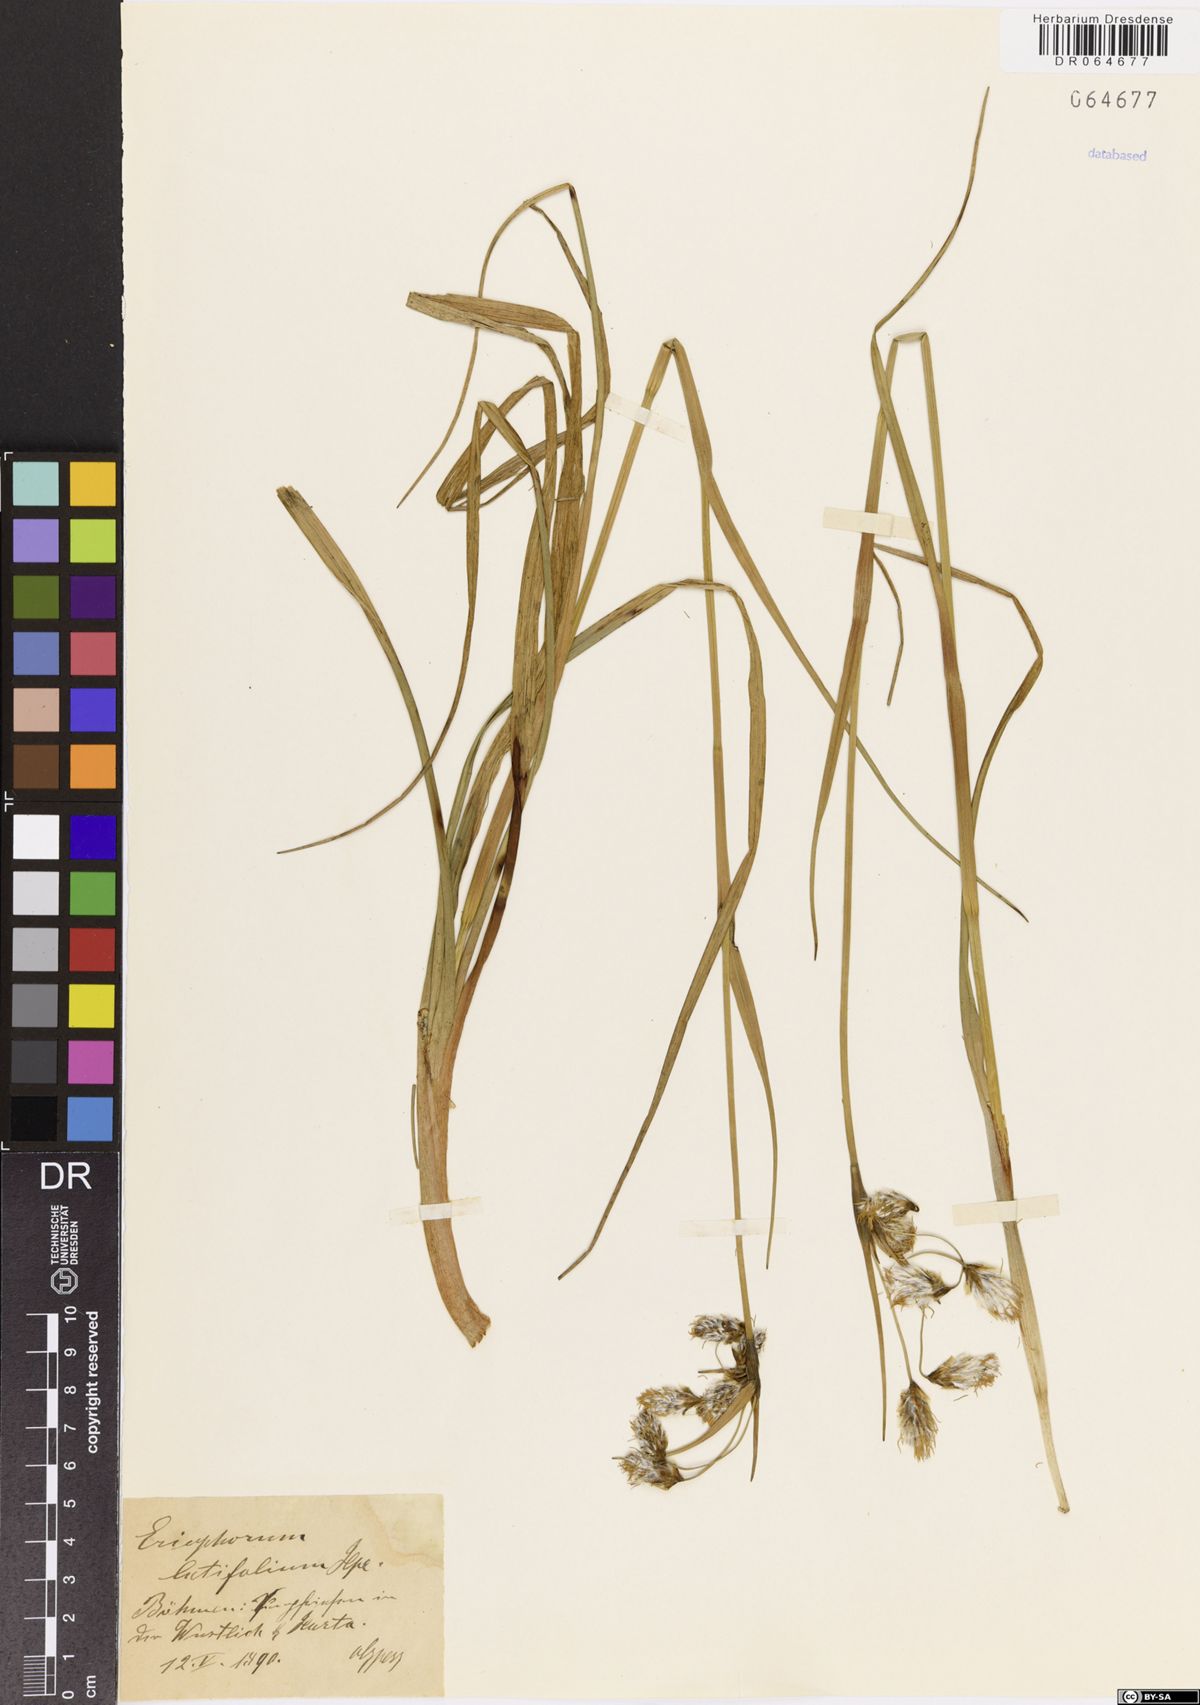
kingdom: Plantae
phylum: Tracheophyta
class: Liliopsida
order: Poales
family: Cyperaceae
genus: Eriophorum
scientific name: Eriophorum latifolium
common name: Broad-leaved cottongrass
